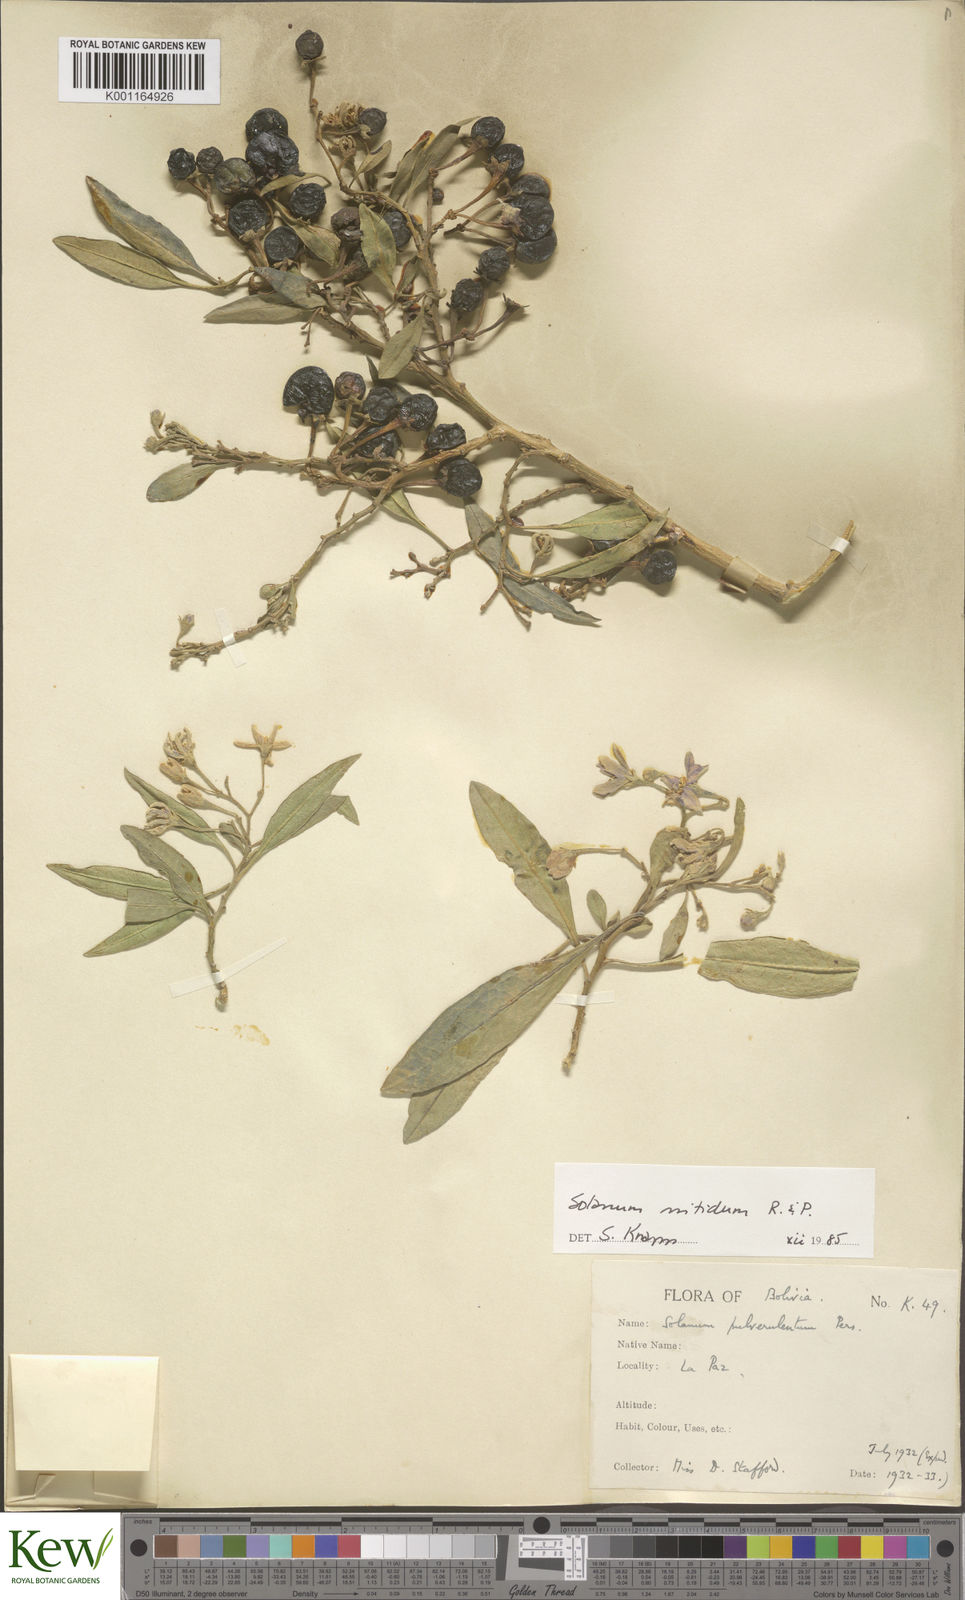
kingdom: Plantae
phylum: Tracheophyta
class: Magnoliopsida
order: Solanales
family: Solanaceae
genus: Solanum
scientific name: Solanum nitidum
